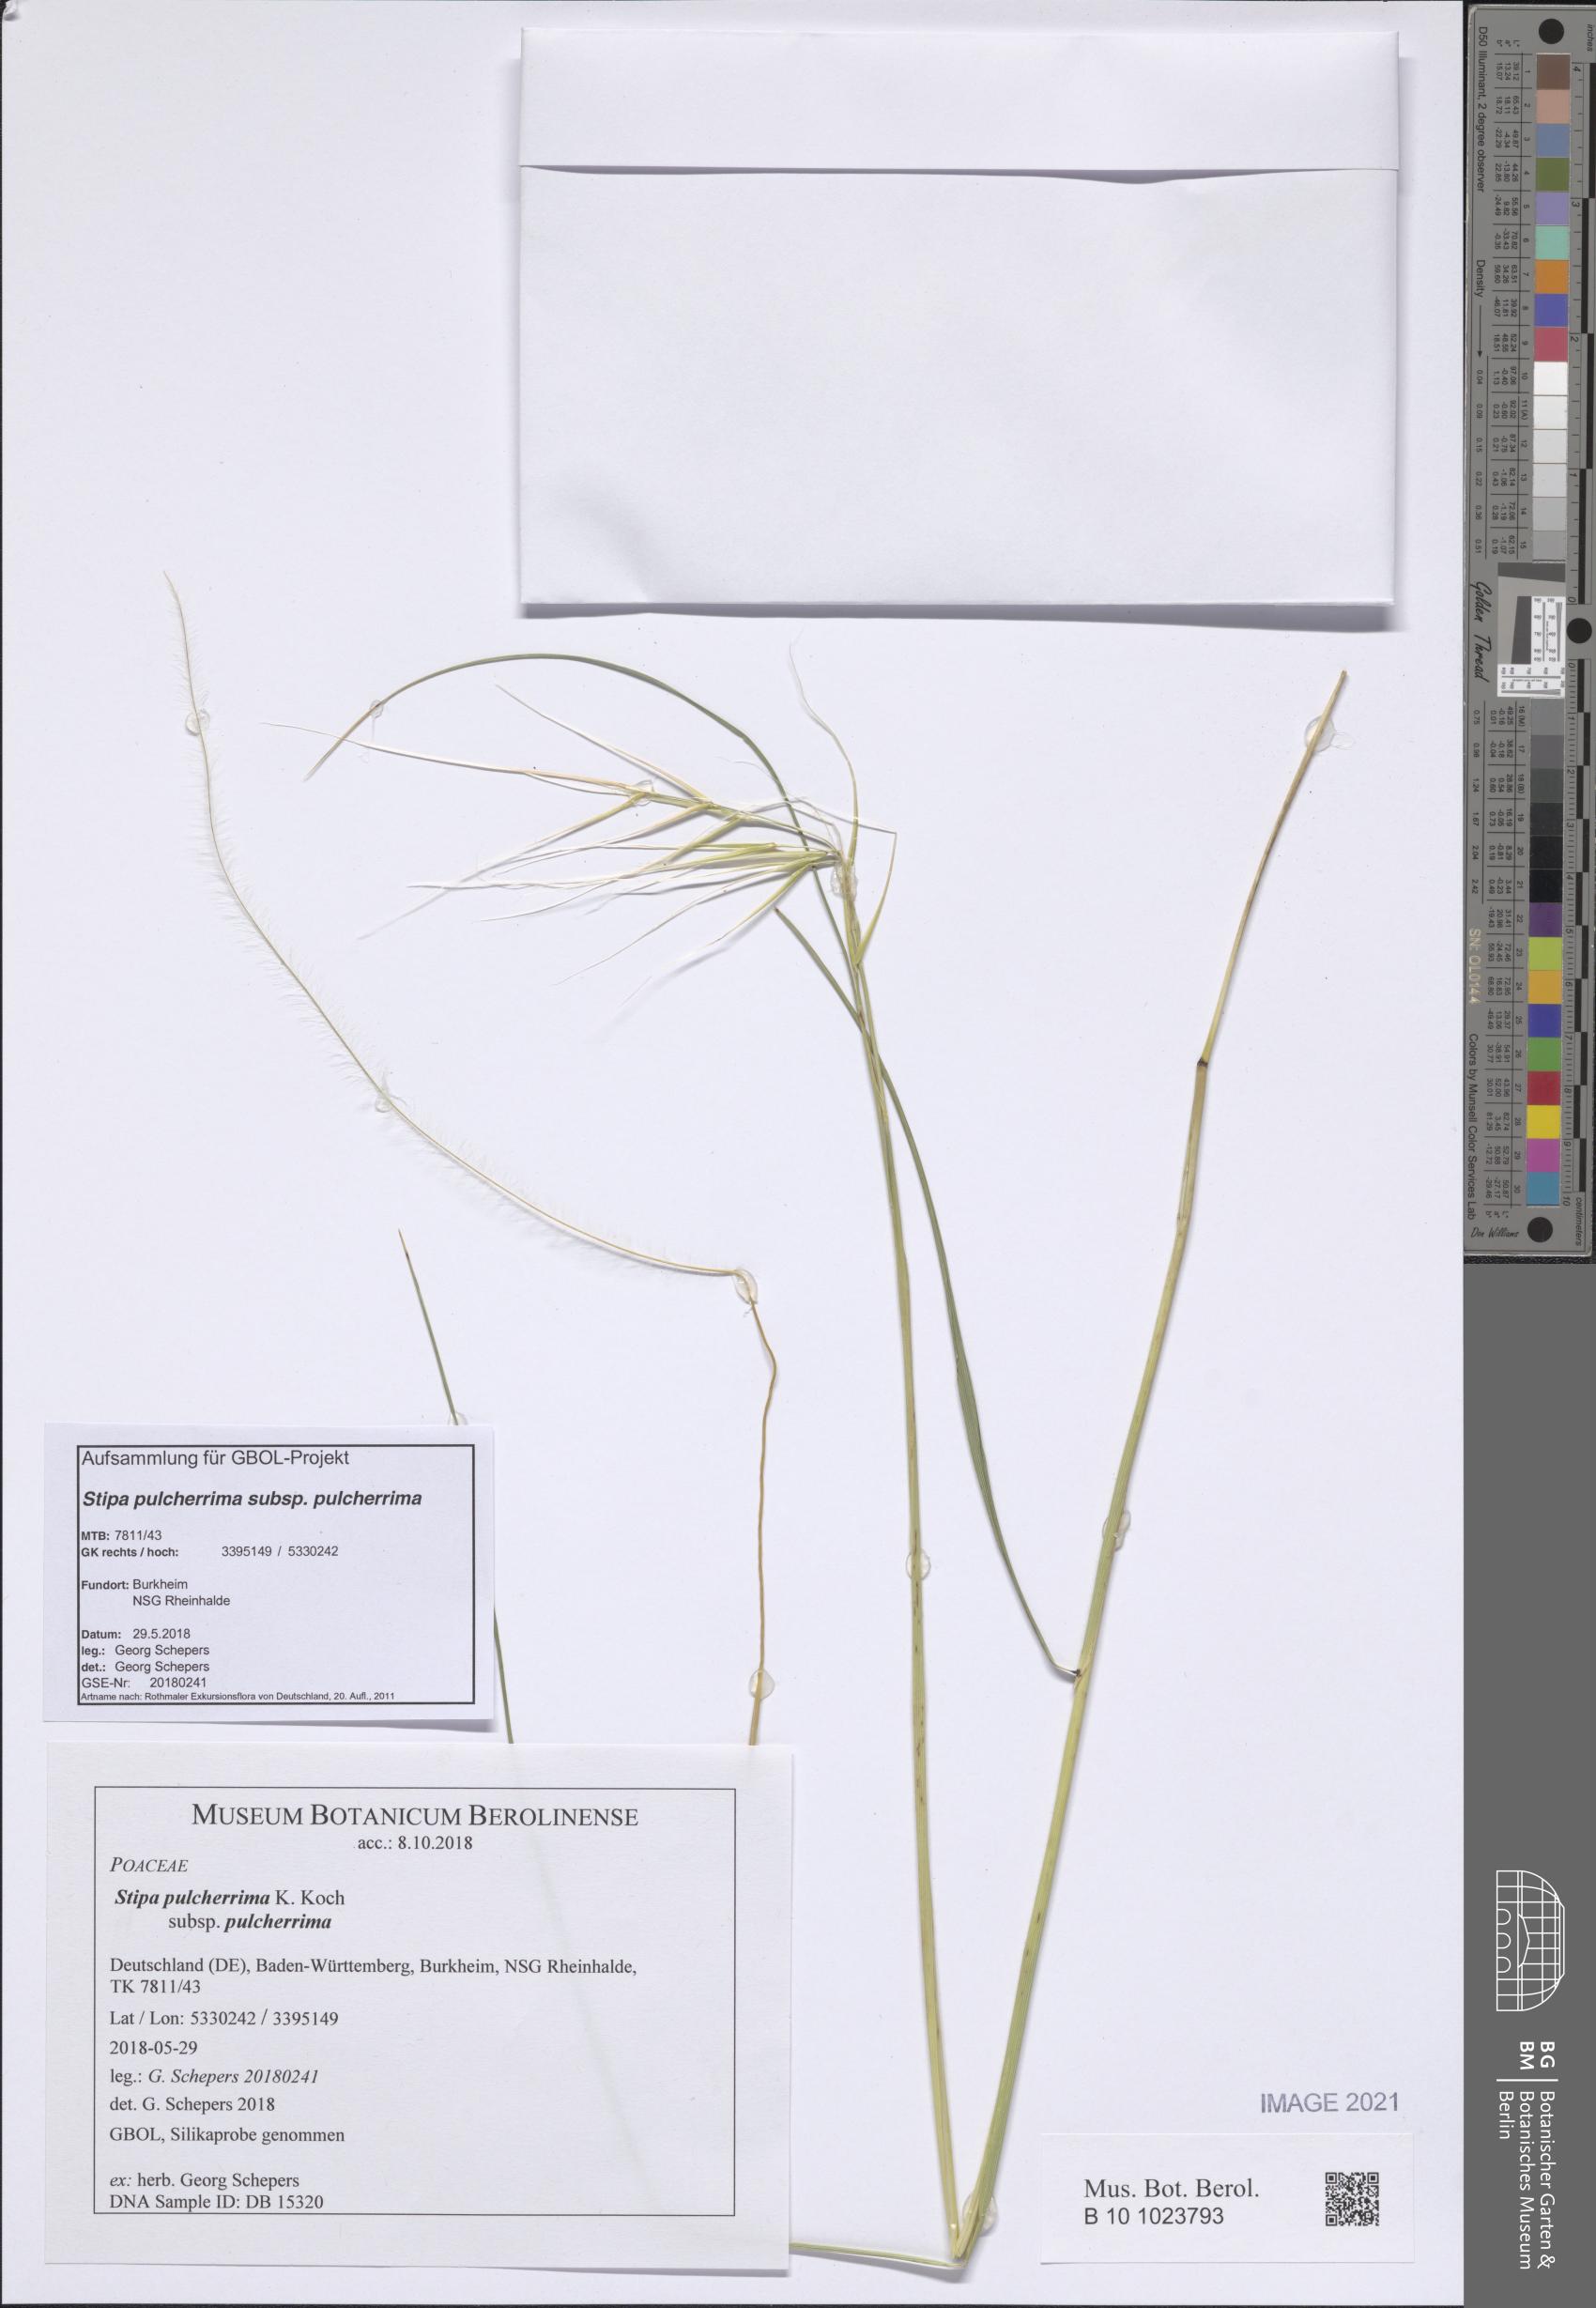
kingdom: Plantae
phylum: Tracheophyta
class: Liliopsida
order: Poales
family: Poaceae
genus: Stipa
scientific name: Stipa pennata
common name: European feather grass
